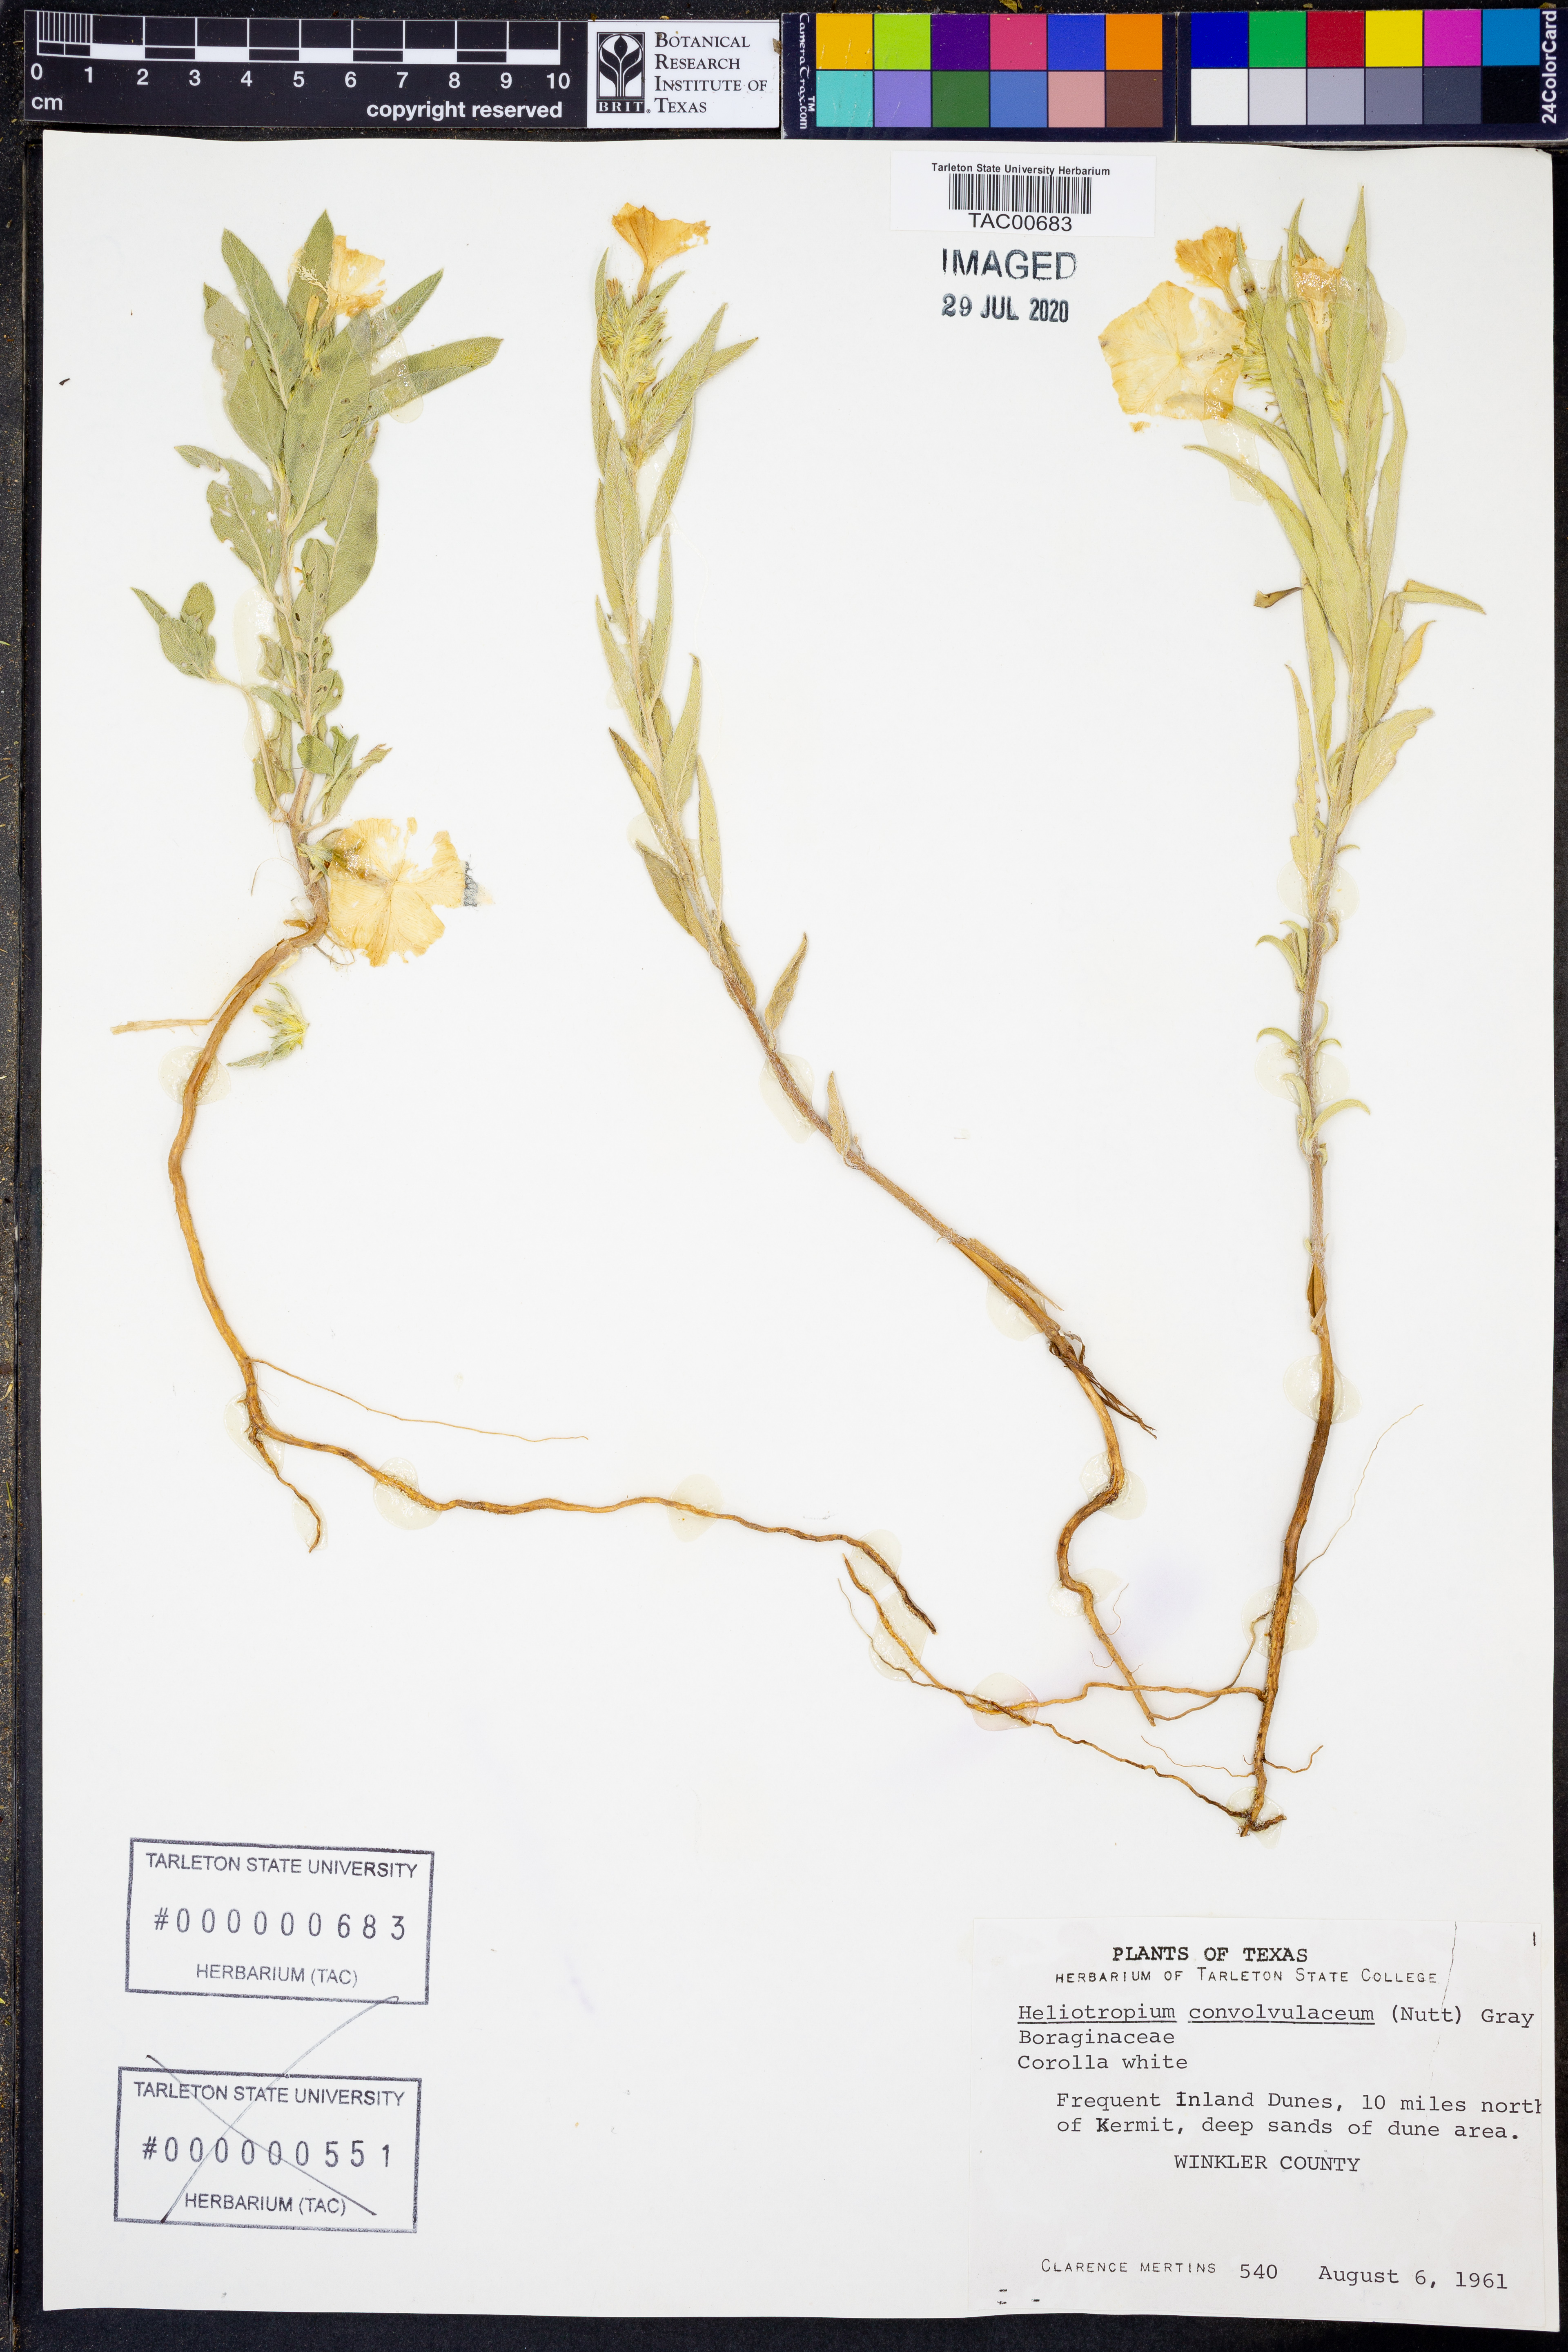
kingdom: Plantae
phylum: Tracheophyta
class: Magnoliopsida
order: Boraginales
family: Heliotropiaceae
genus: Euploca
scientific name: Euploca convolvulacea
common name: Bindweed heliotrope
